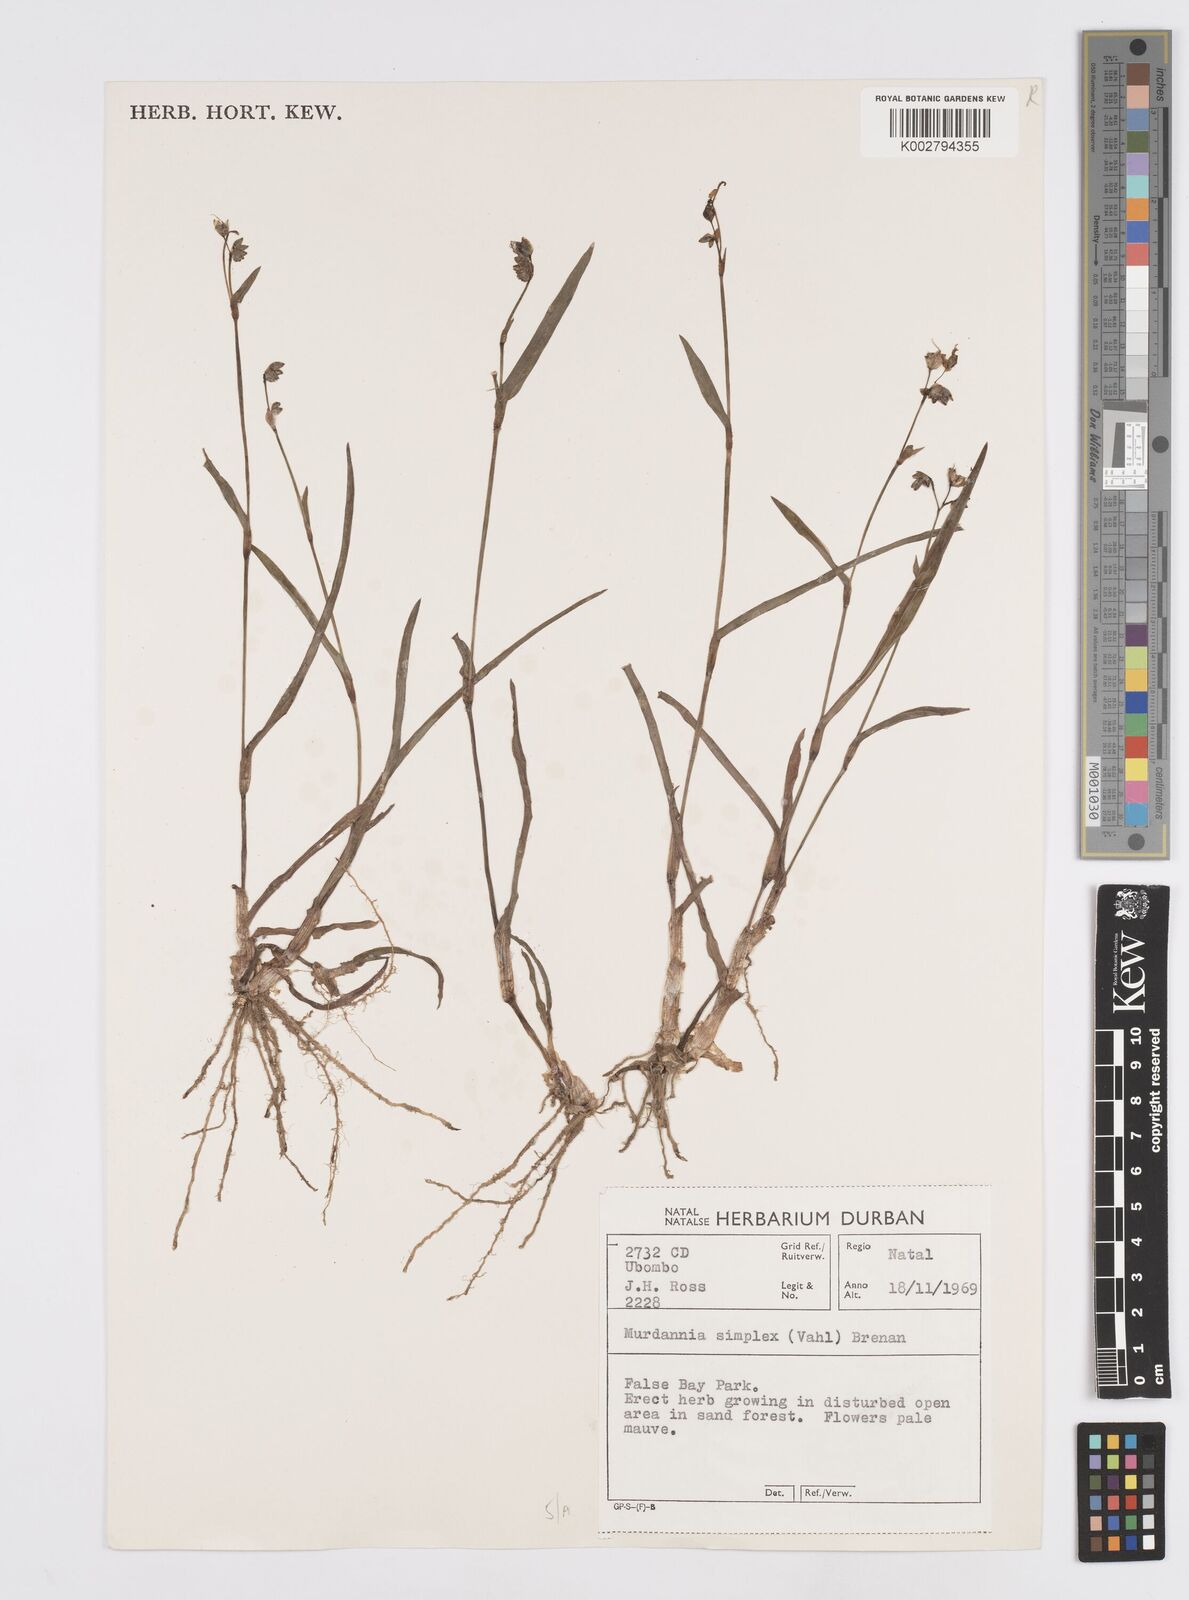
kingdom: Plantae
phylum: Tracheophyta
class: Liliopsida
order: Commelinales
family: Commelinaceae
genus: Murdannia
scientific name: Murdannia simplex
